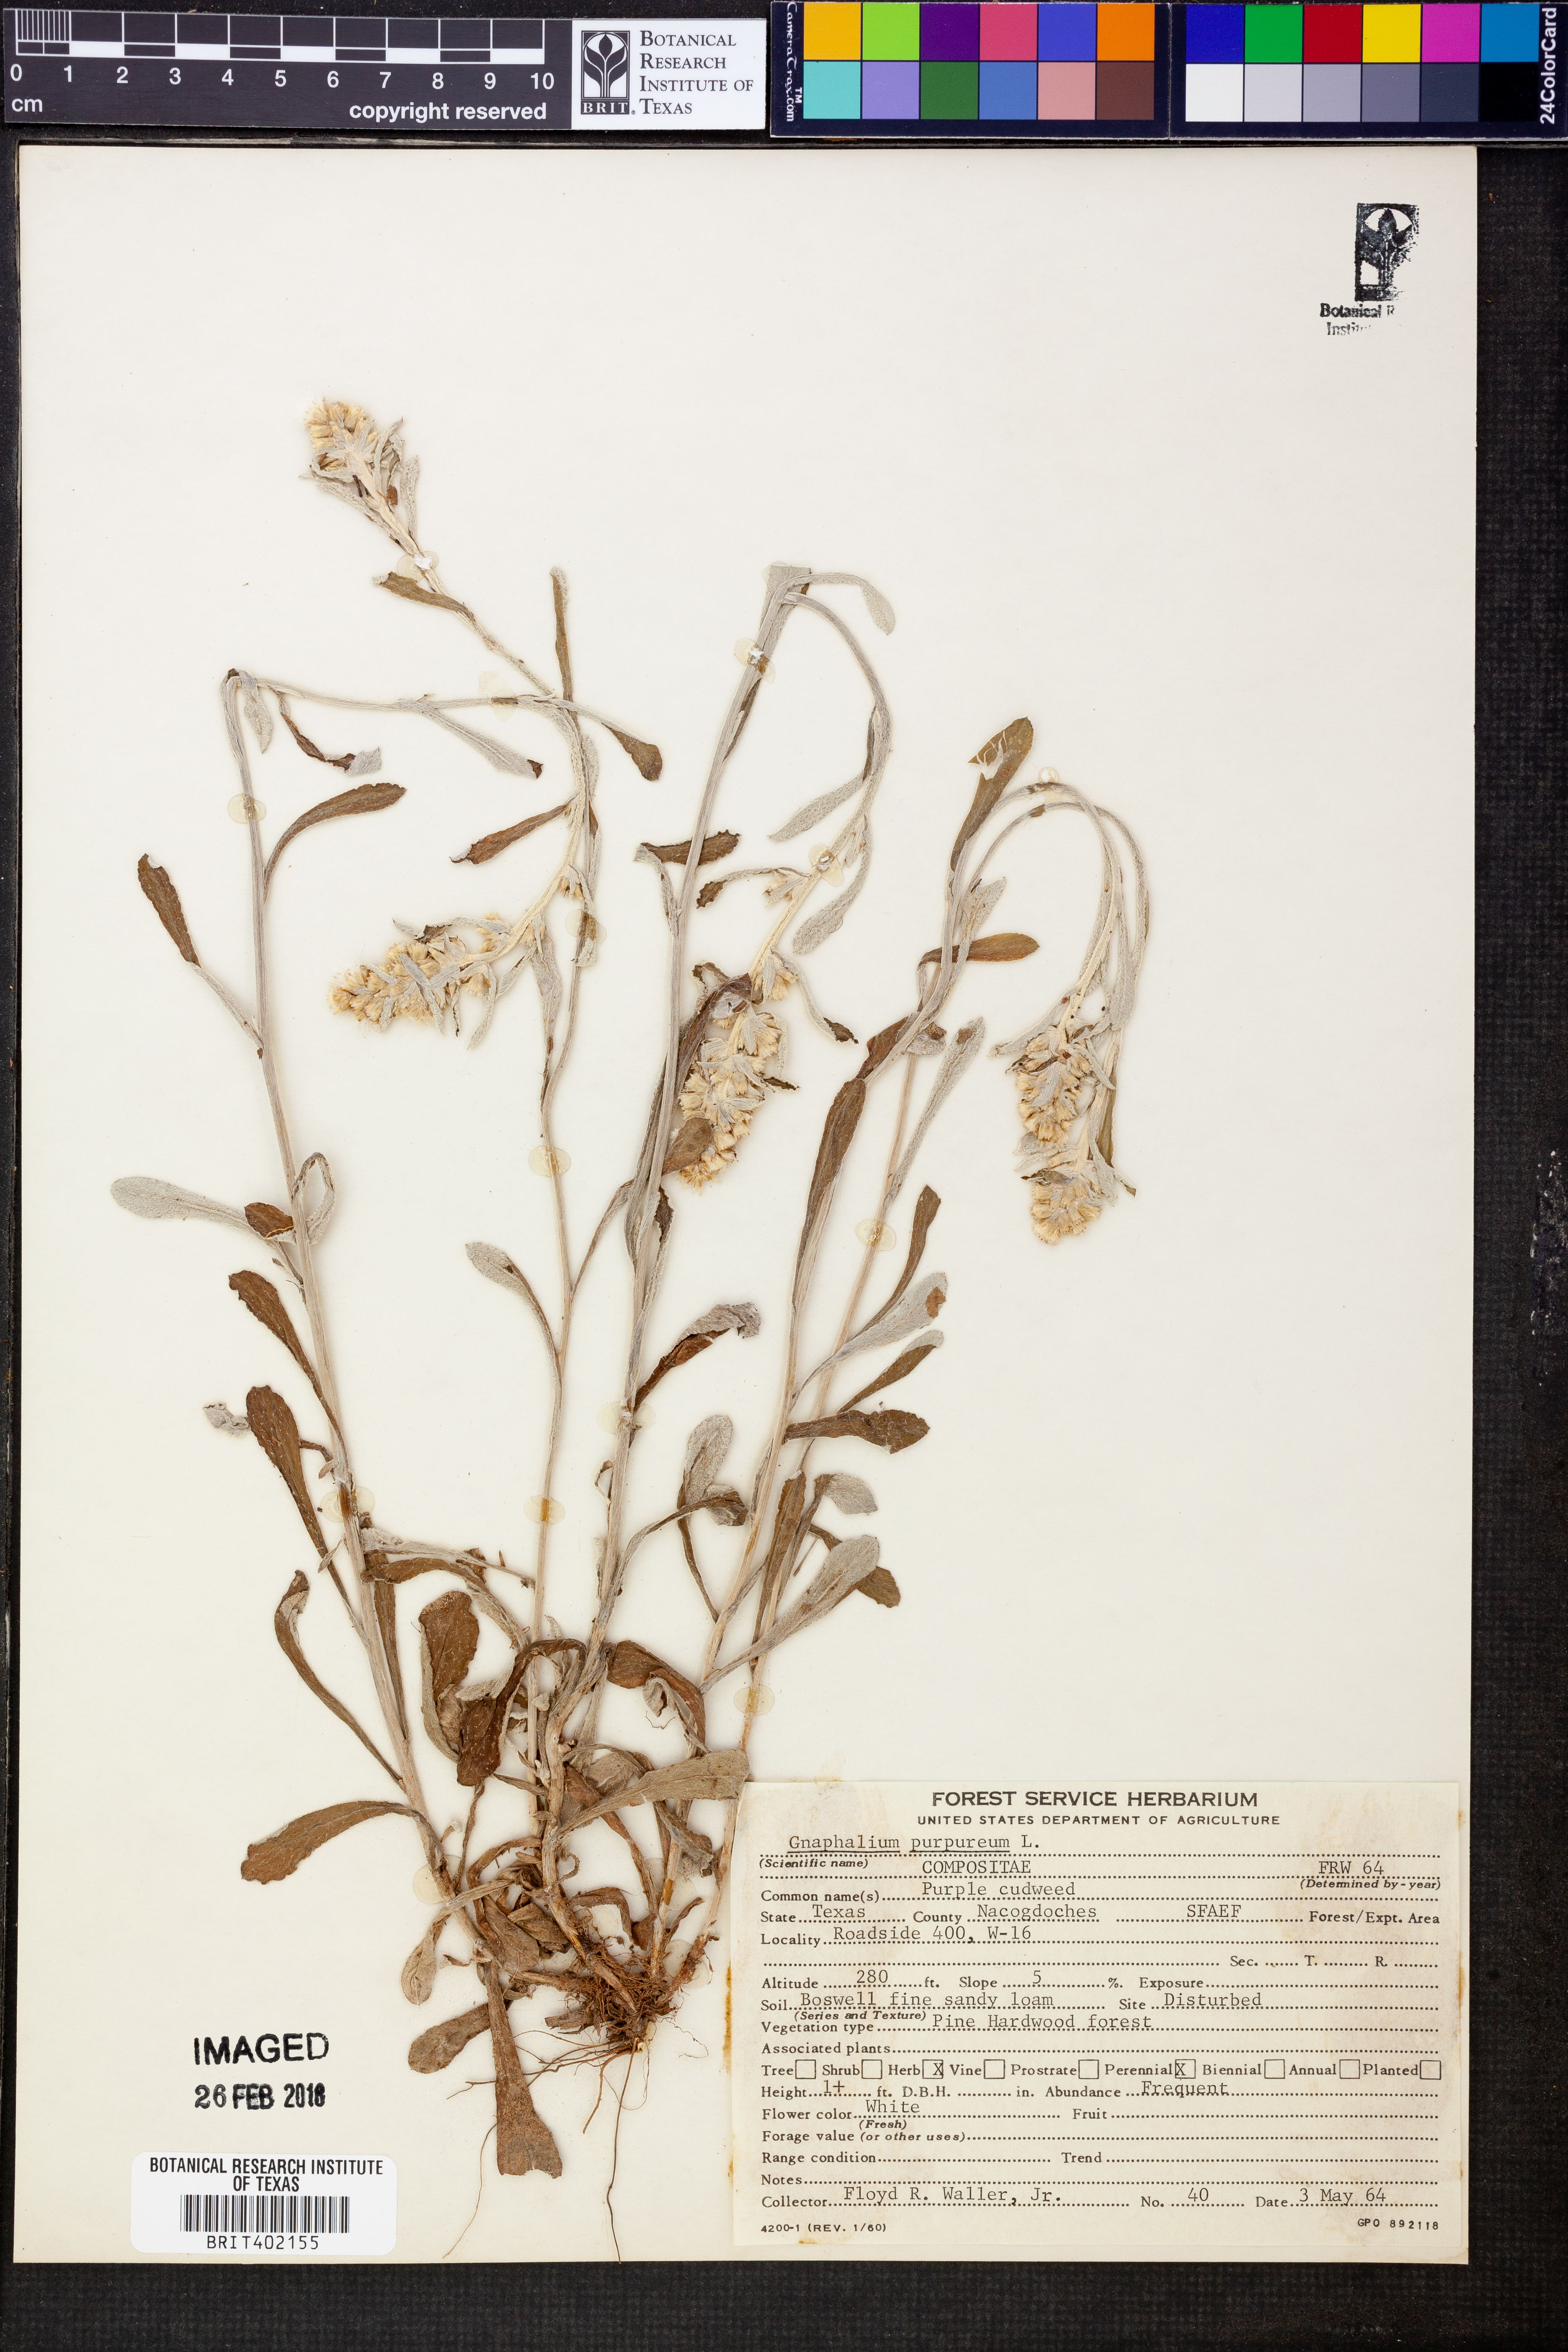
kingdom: Plantae
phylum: Tracheophyta
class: Magnoliopsida
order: Asterales
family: Asteraceae
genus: Gamochaeta
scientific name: Gamochaeta purpurea
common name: Purple cudweed
